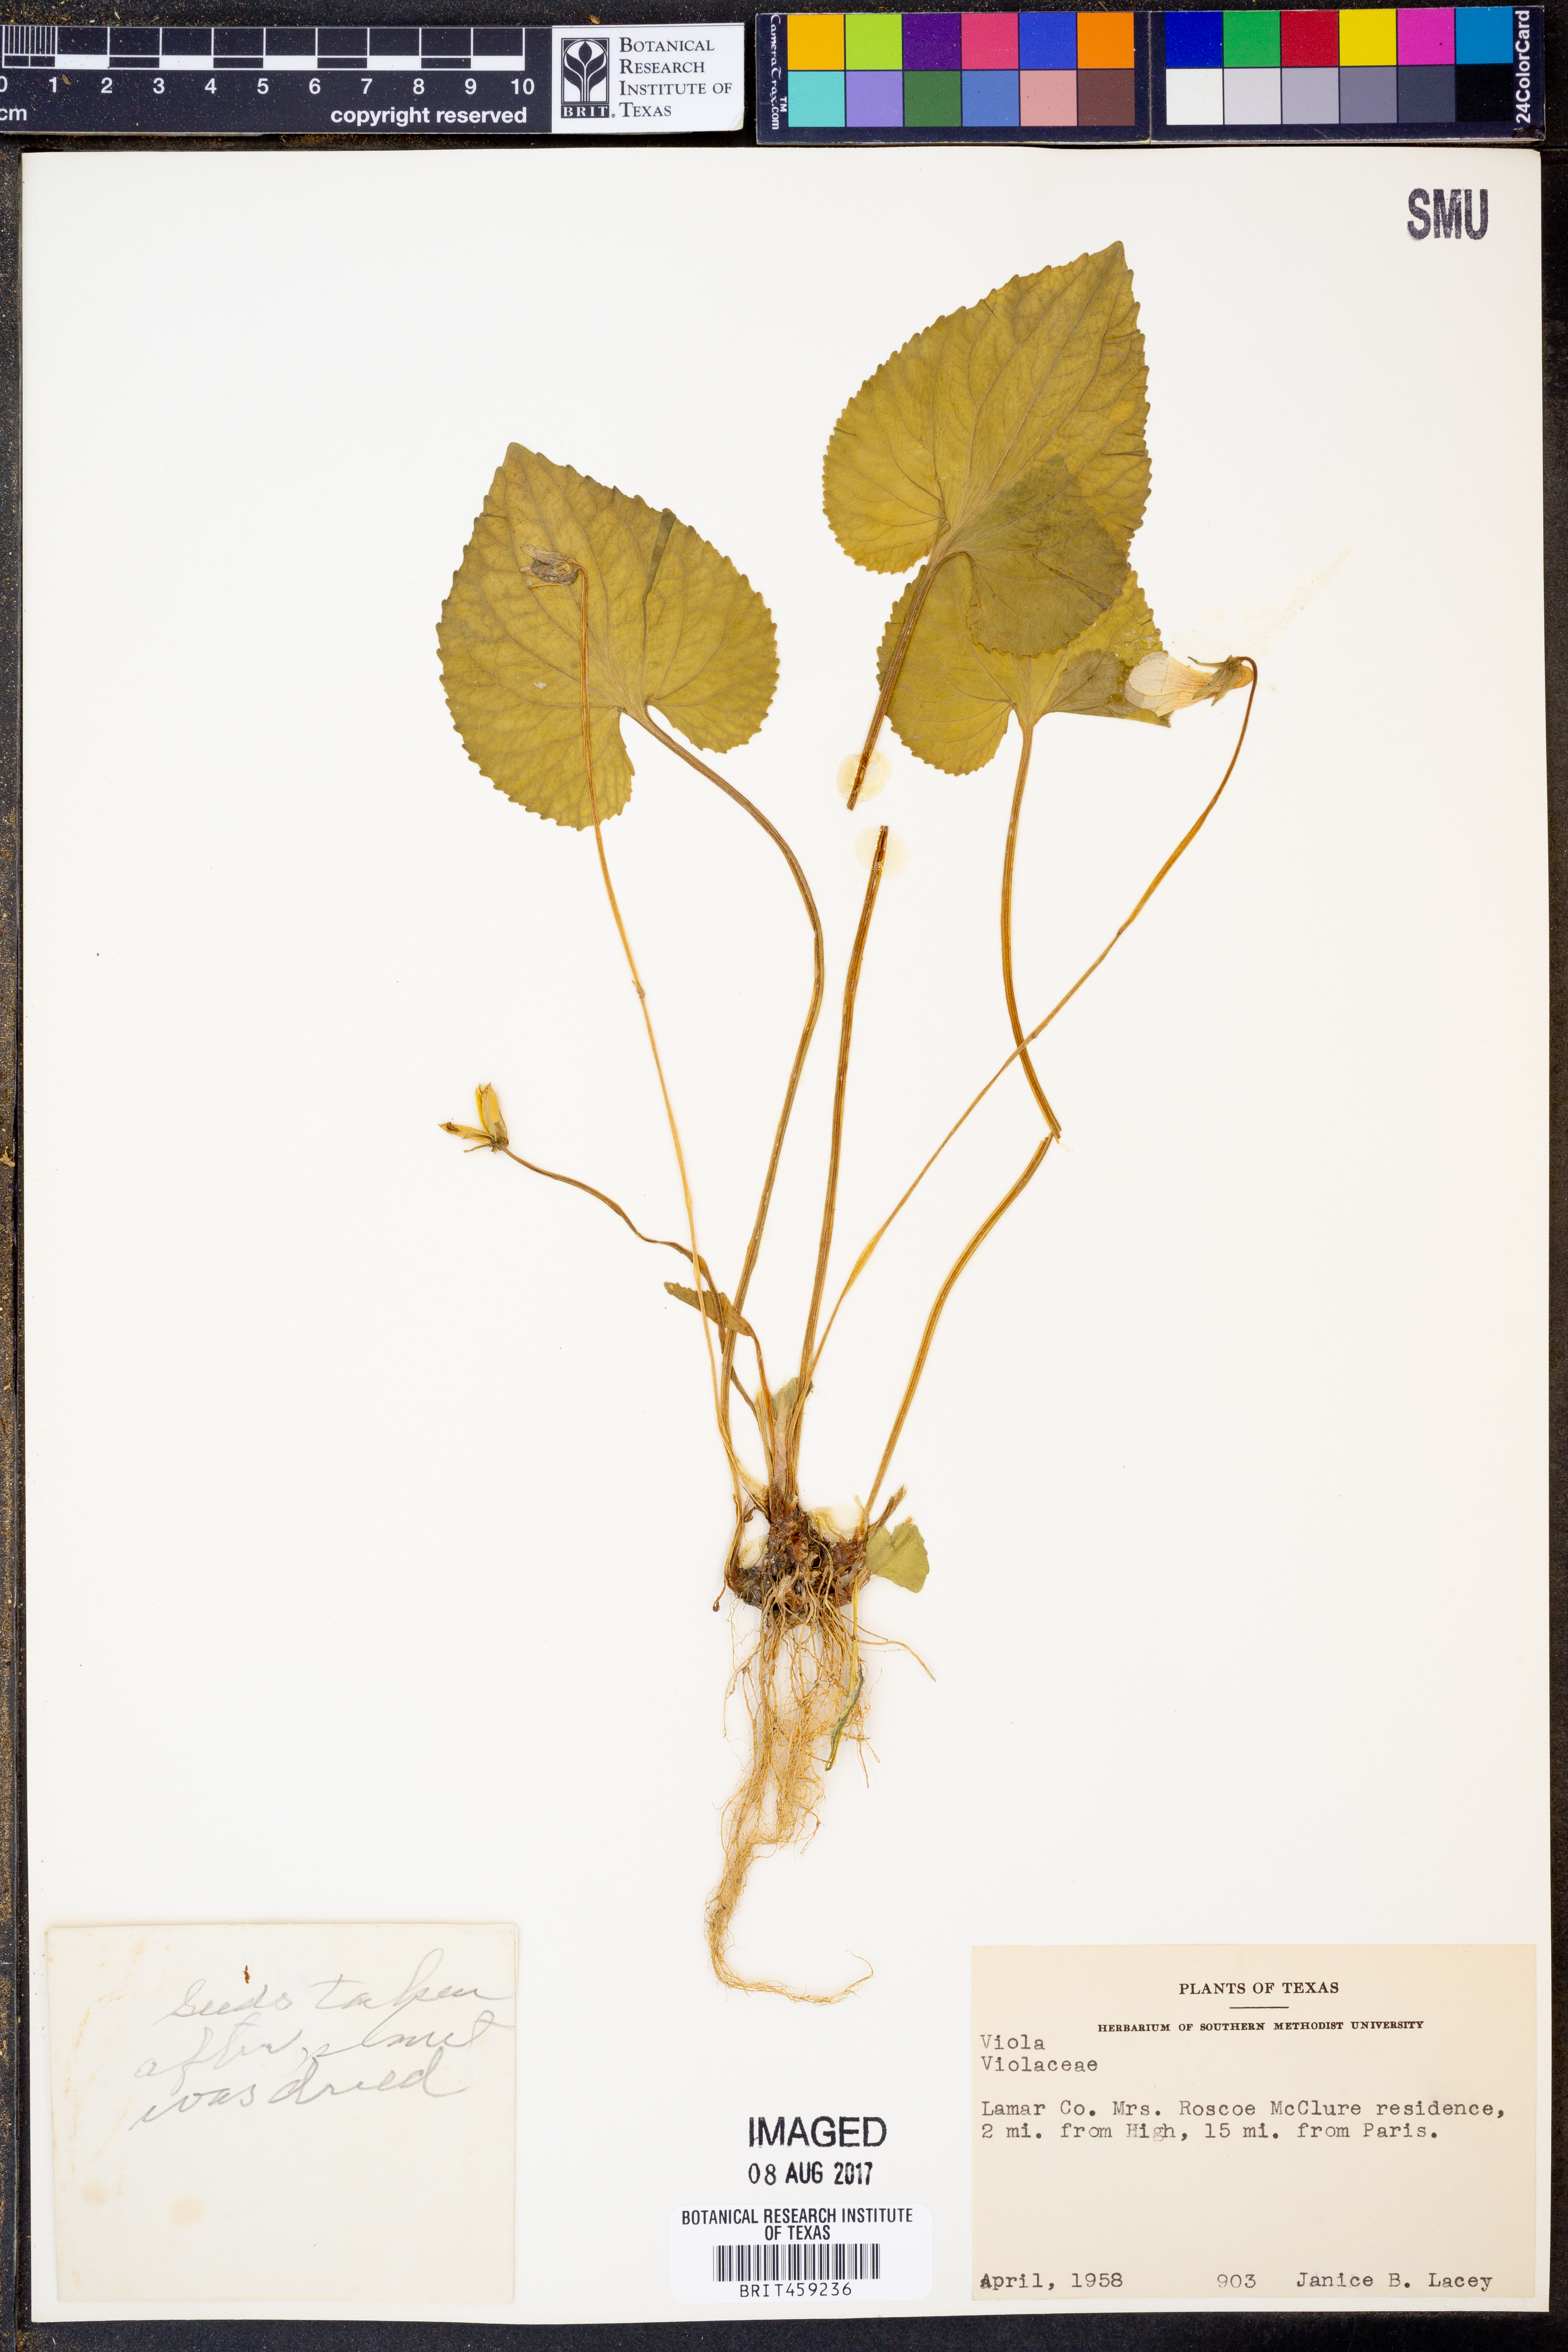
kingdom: Plantae
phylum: Tracheophyta
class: Magnoliopsida
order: Malpighiales
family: Violaceae
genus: Viola
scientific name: Viola
